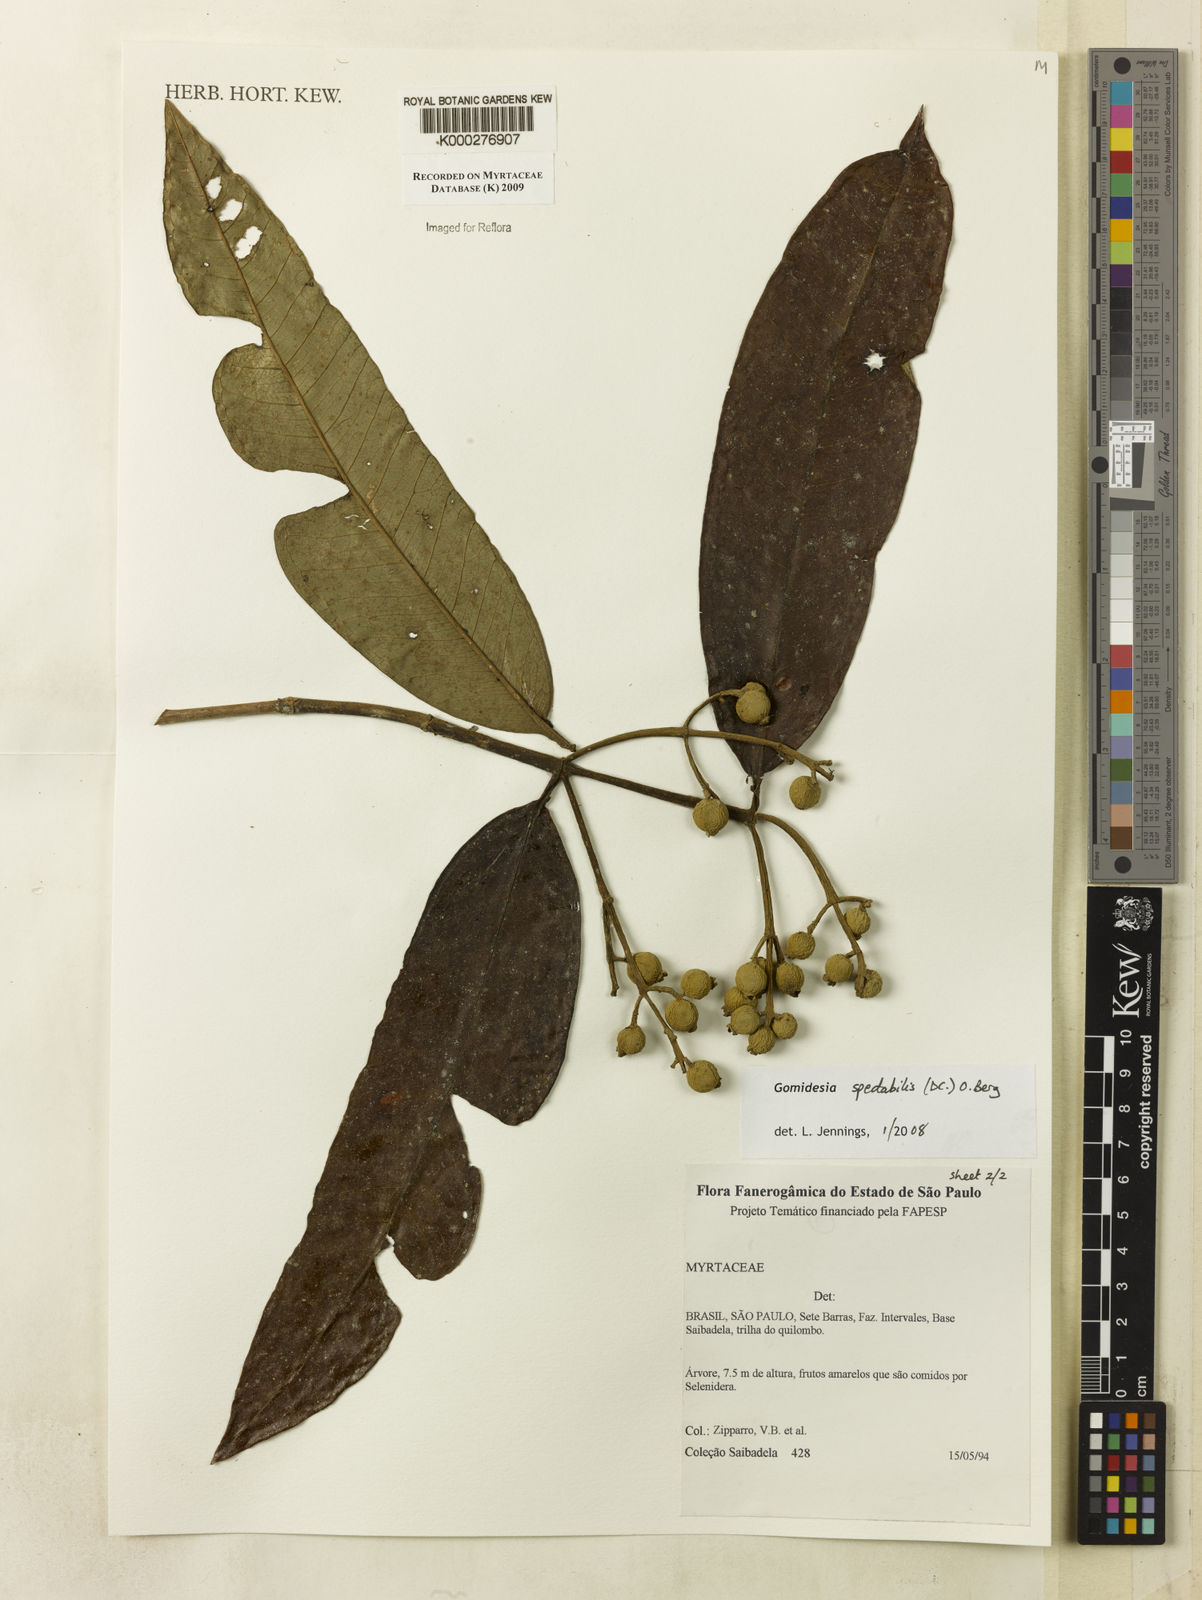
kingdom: Plantae
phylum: Tracheophyta
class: Magnoliopsida
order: Myrtales
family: Myrtaceae
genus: Myrcia
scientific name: Myrcia spectabilis
